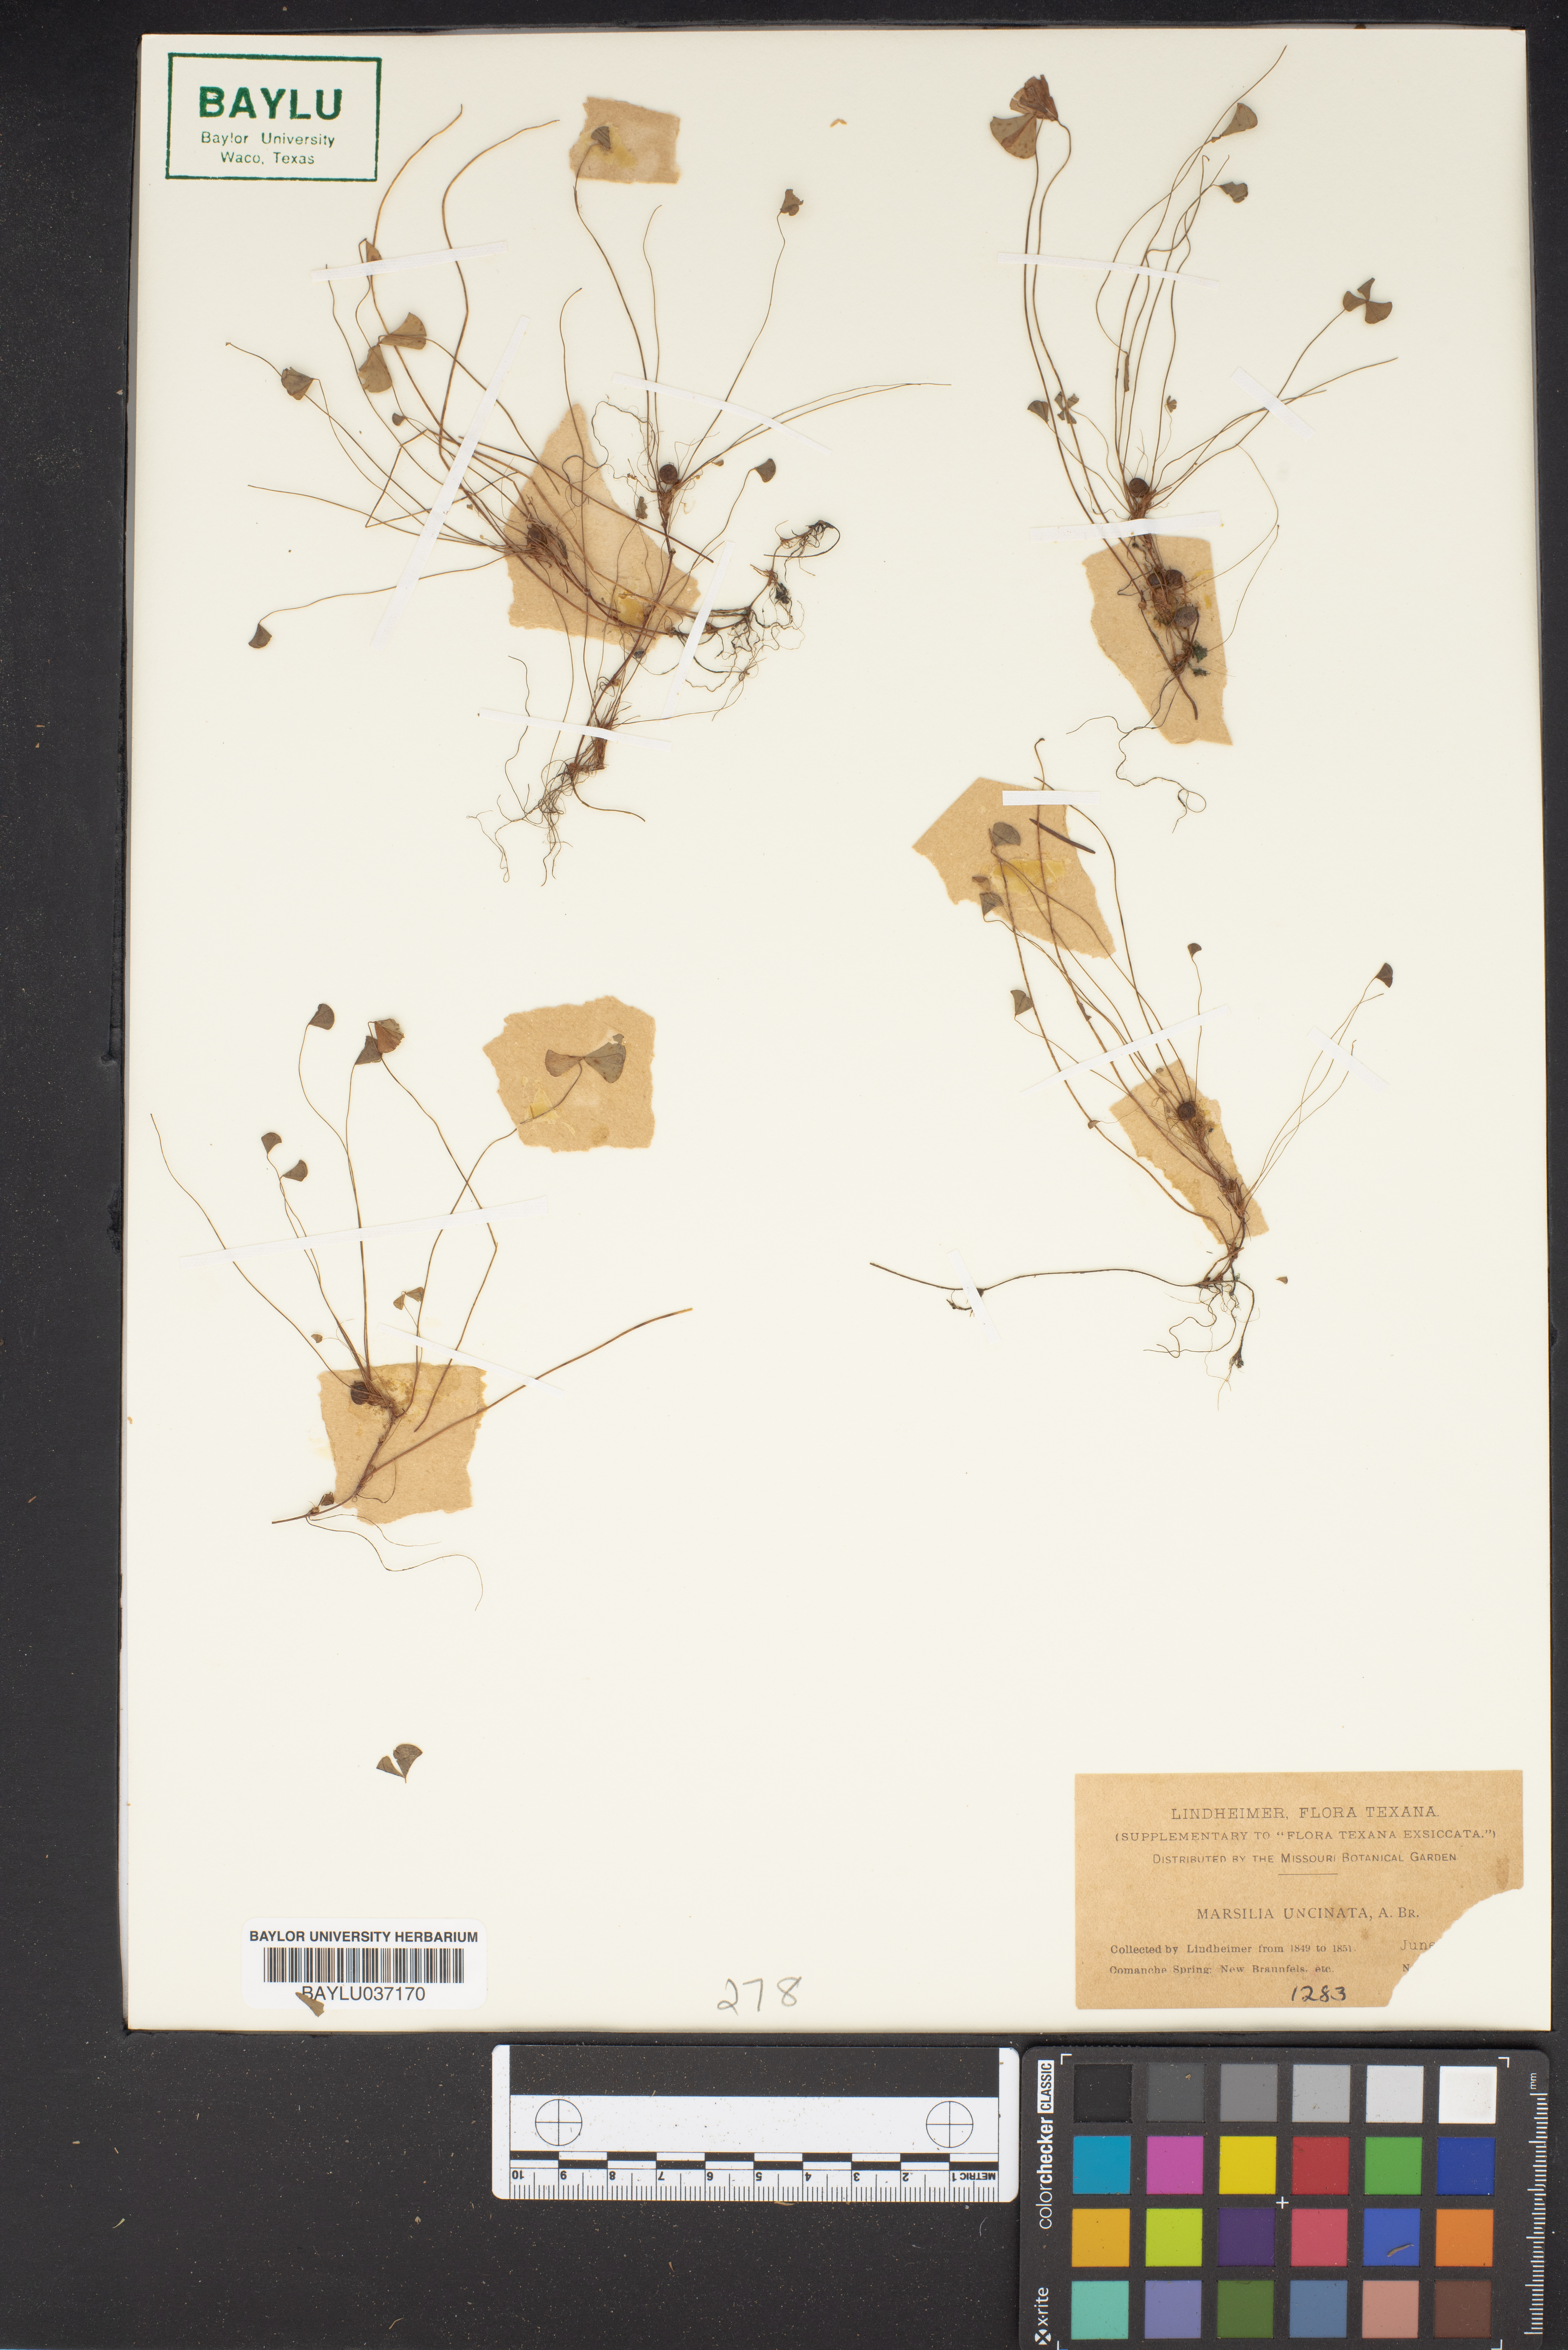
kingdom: Plantae
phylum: Tracheophyta
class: Polypodiopsida
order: Salviniales
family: Marsileaceae
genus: Marsilea
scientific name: Marsilea vestita
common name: Hooked-pepperwort
